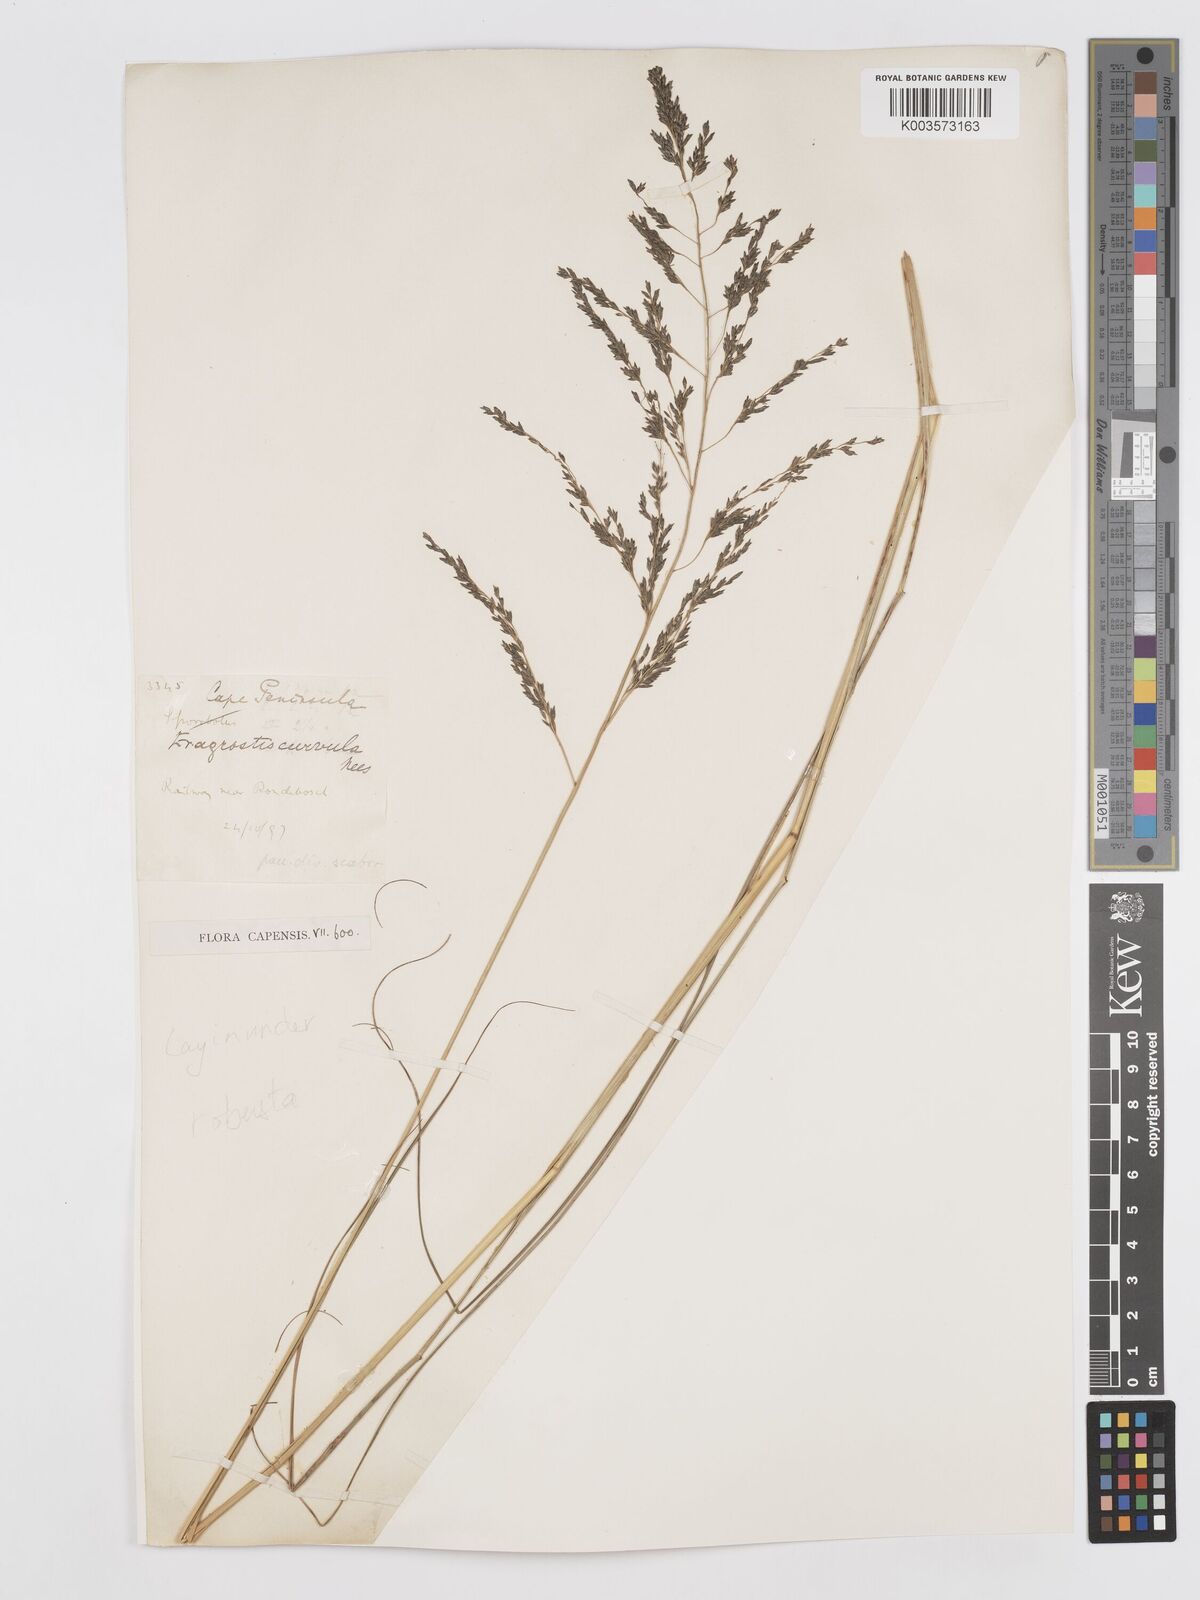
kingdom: Plantae
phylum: Tracheophyta
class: Liliopsida
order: Poales
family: Poaceae
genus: Eragrostis
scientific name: Eragrostis curvula
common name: African love-grass
